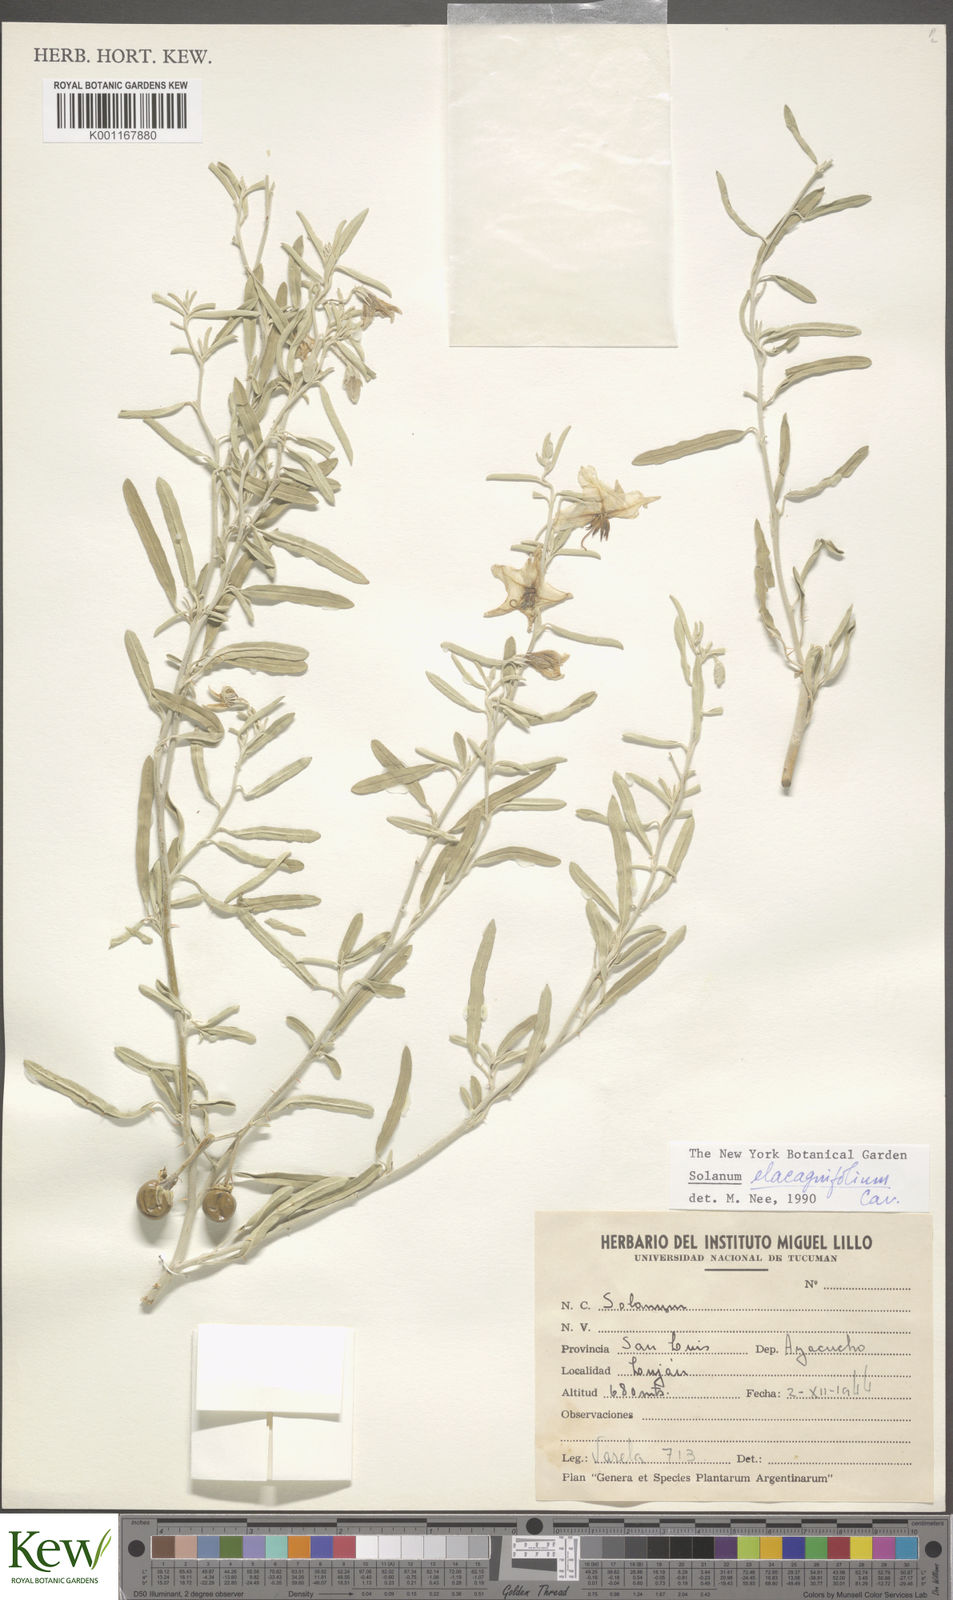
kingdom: Plantae
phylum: Tracheophyta
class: Magnoliopsida
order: Solanales
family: Solanaceae
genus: Solanum
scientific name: Solanum elaeagnifolium
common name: Silverleaf nightshade
